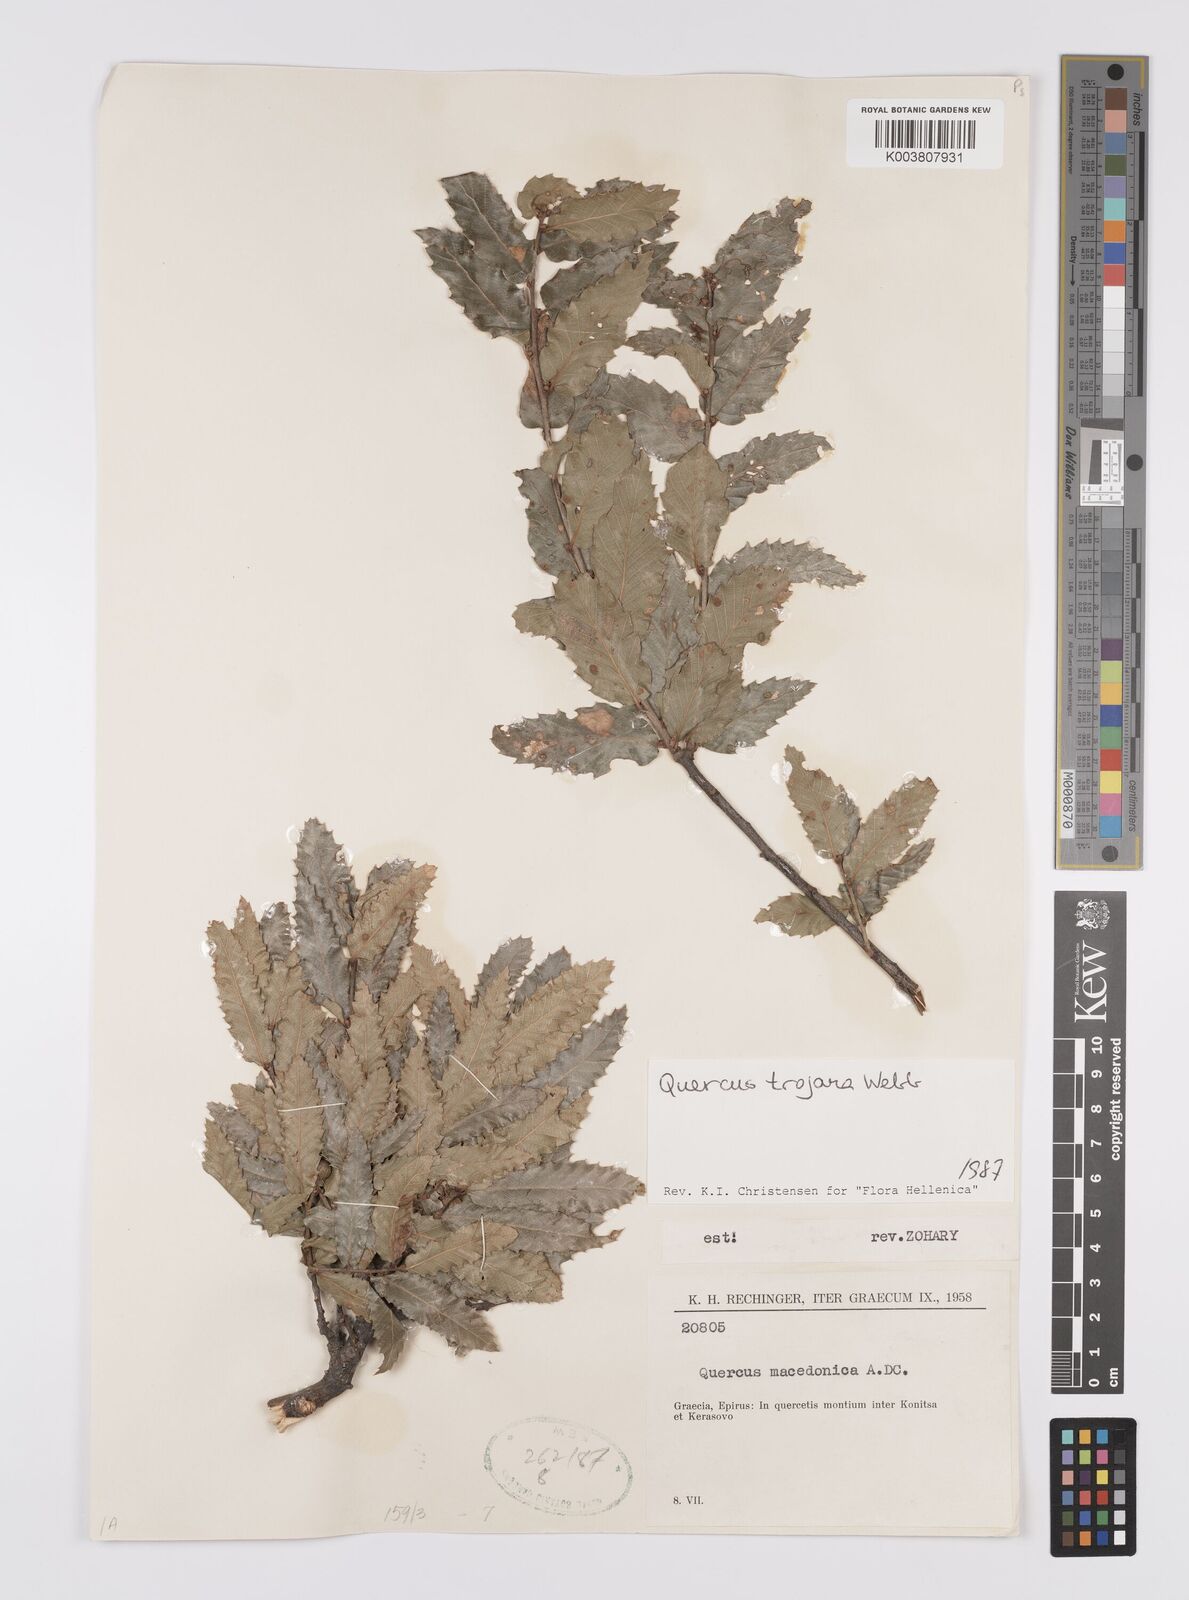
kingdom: Plantae
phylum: Tracheophyta
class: Magnoliopsida
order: Fagales
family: Fagaceae
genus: Quercus
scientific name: Quercus trojana
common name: Macedonian oak
